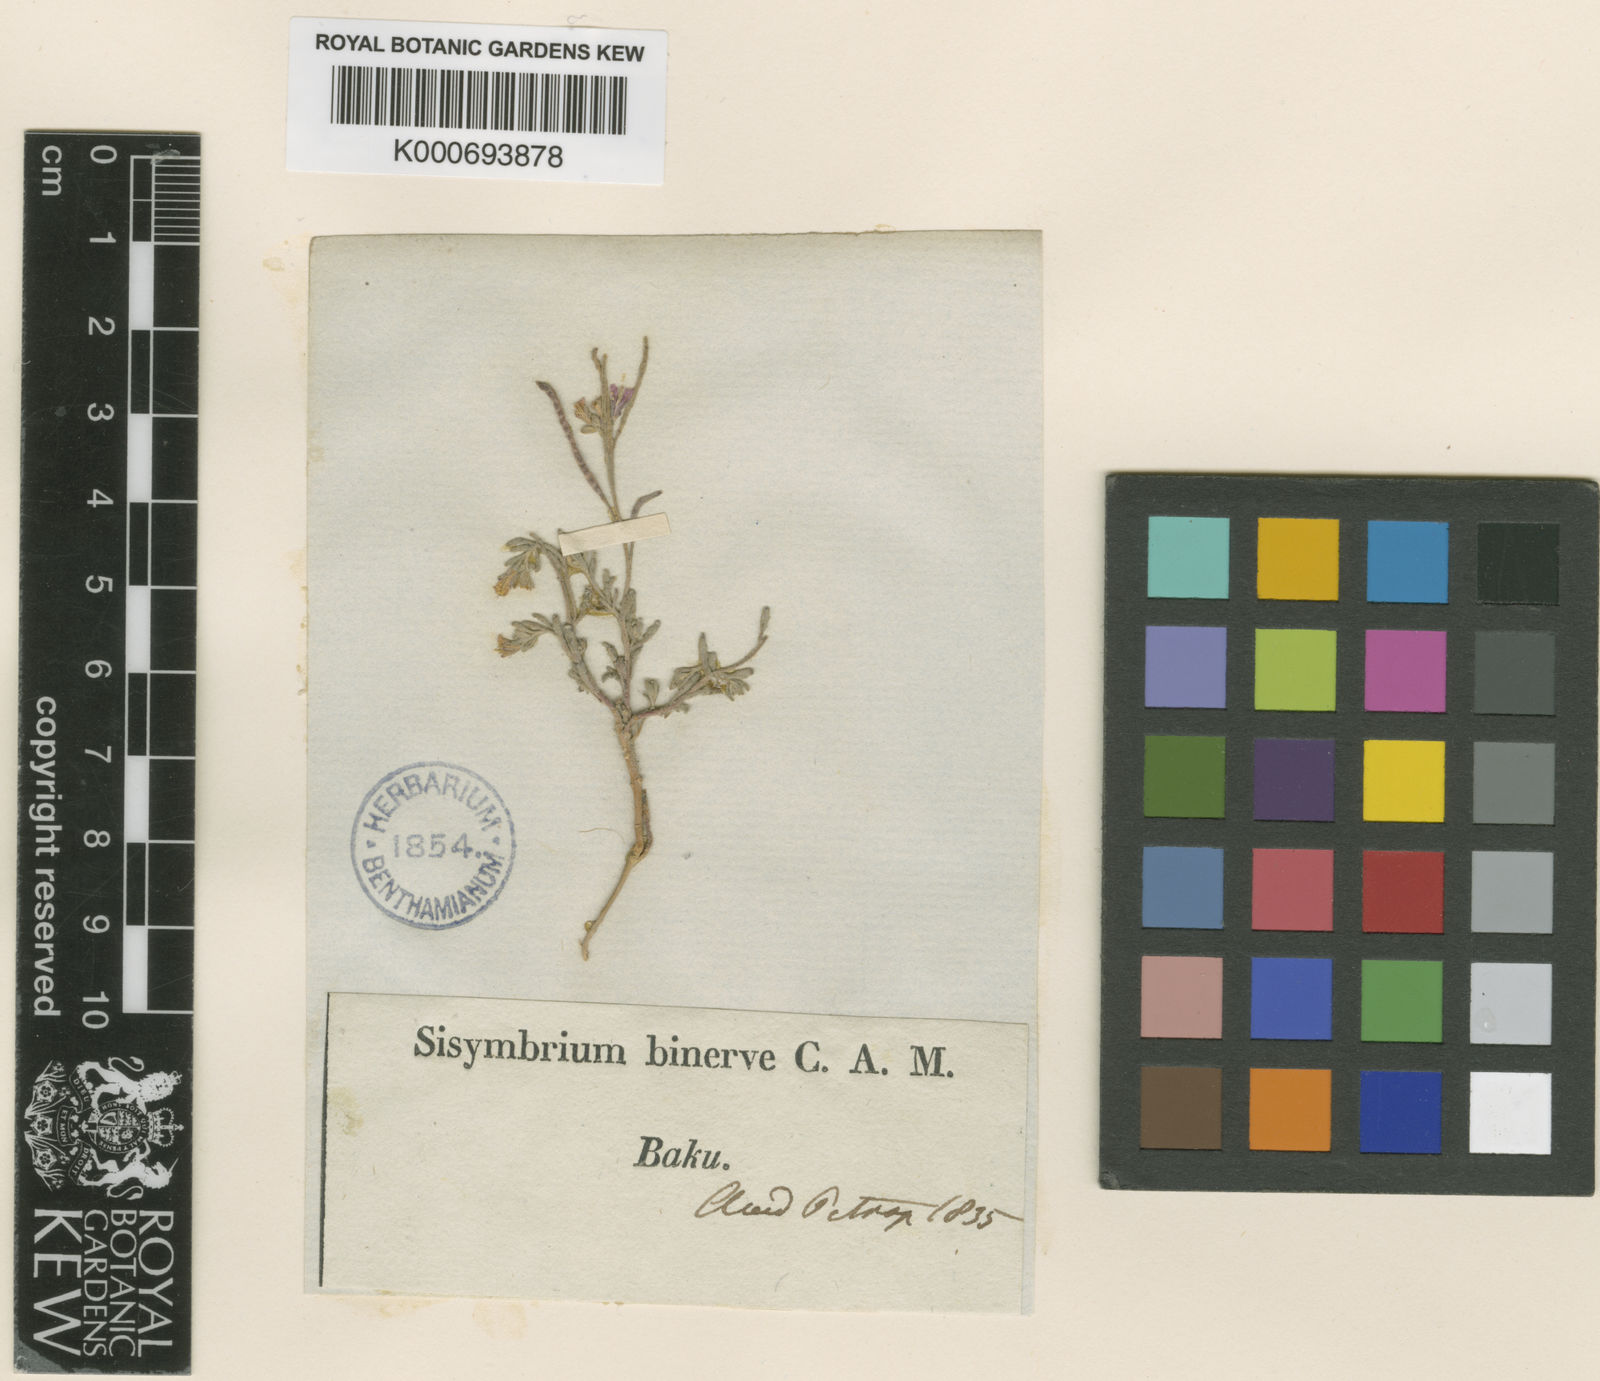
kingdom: Plantae
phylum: Tracheophyta
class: Magnoliopsida
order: Brassicales
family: Brassicaceae
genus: Maresia
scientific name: Maresia nana
